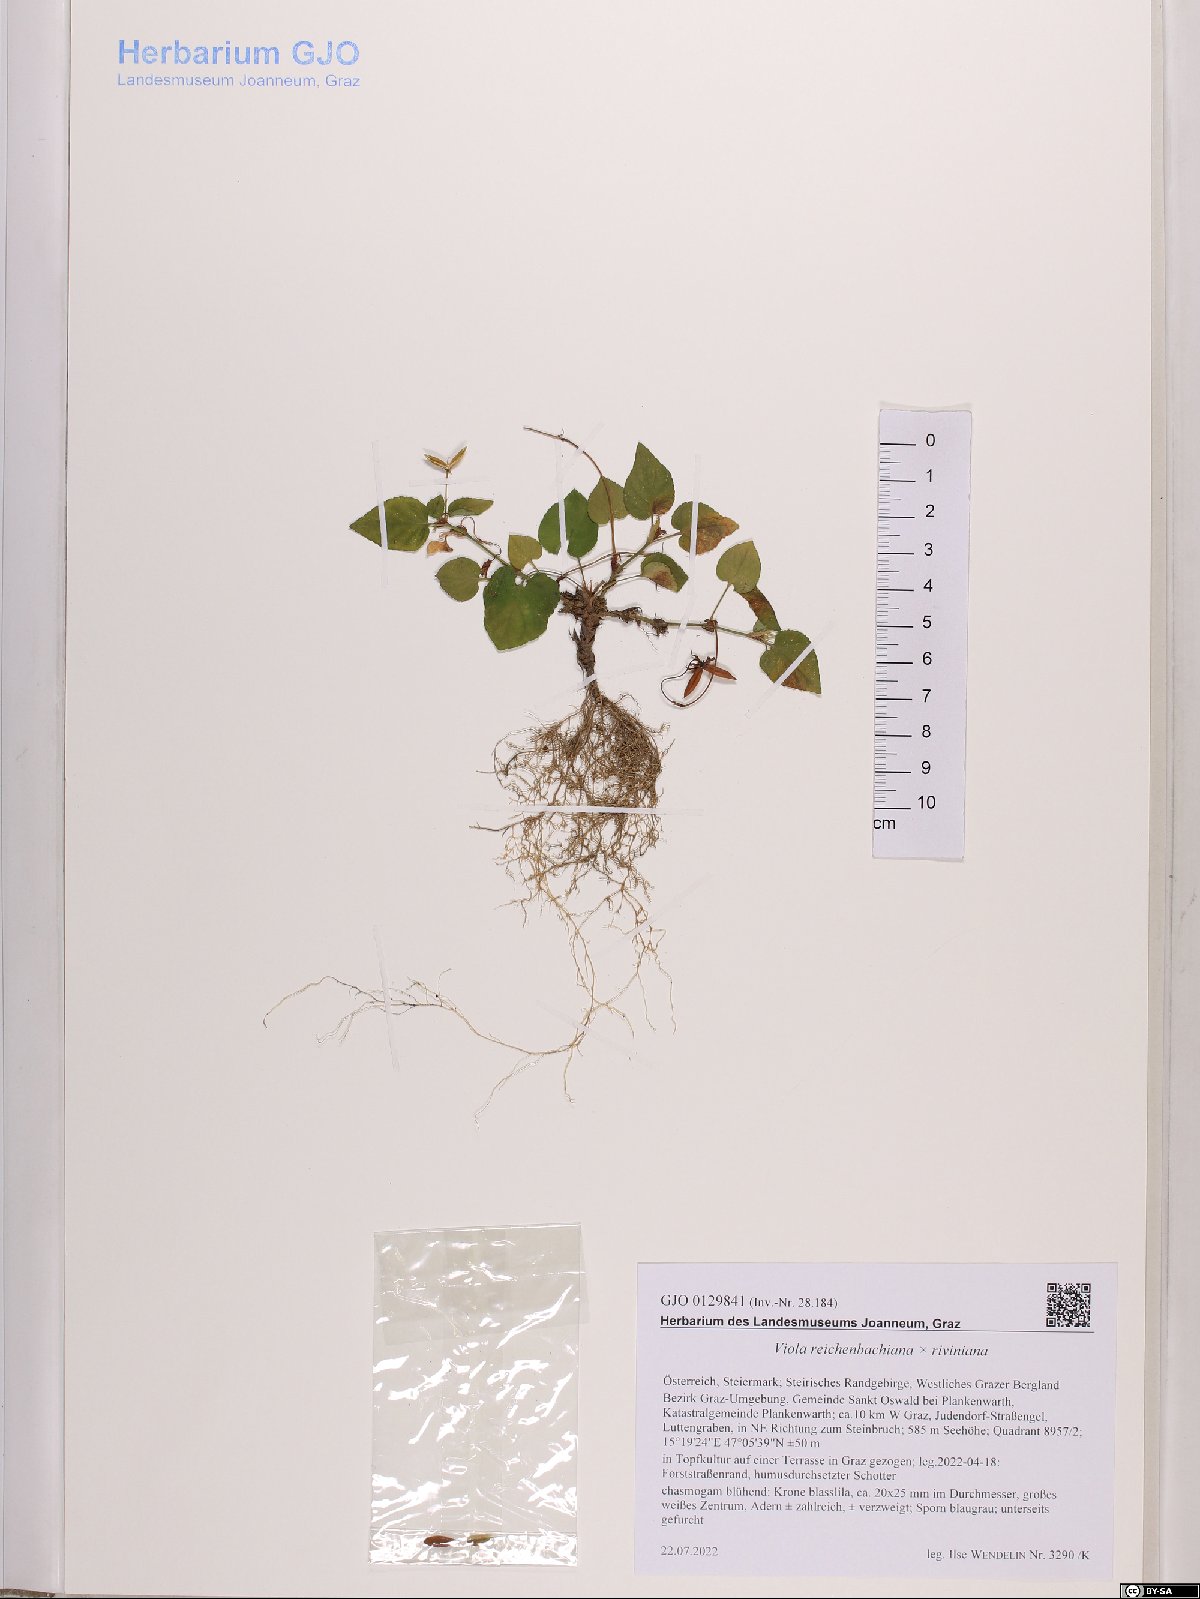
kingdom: Plantae
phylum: Tracheophyta
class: Magnoliopsida
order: Malpighiales
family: Violaceae
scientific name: Violaceae
